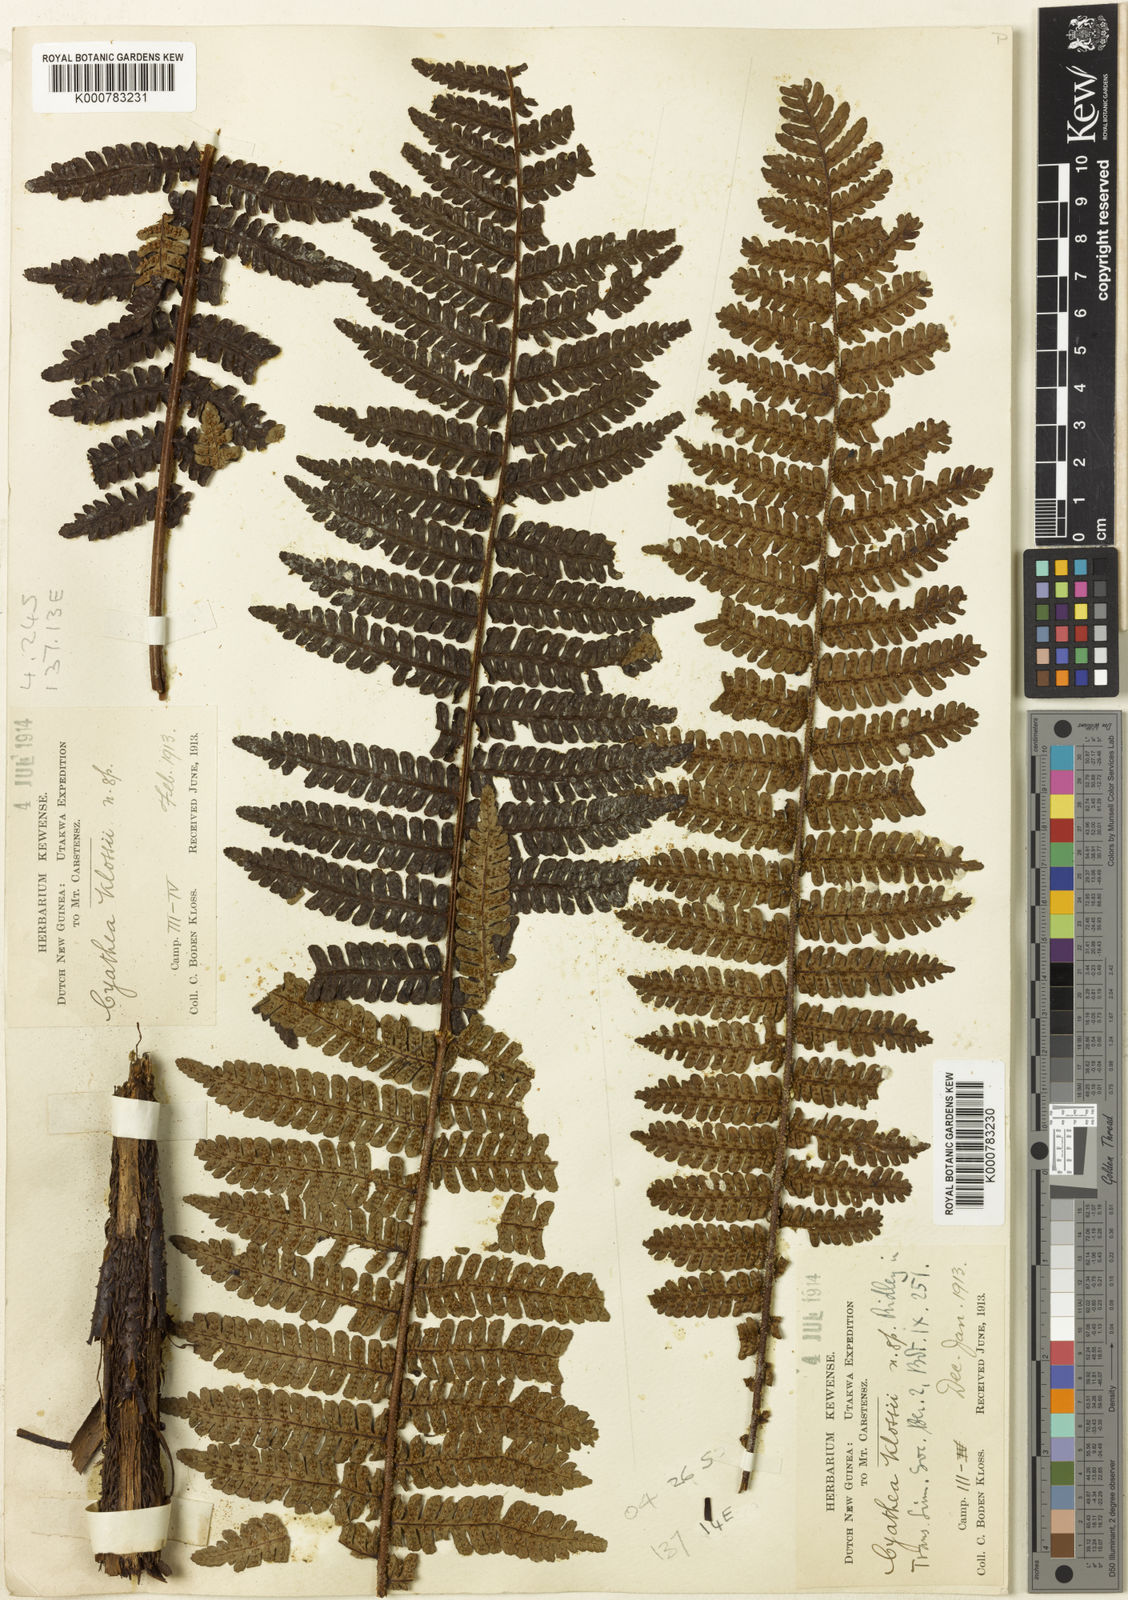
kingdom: Plantae
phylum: Tracheophyta
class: Polypodiopsida
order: Cyatheales
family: Cyatheaceae
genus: Alsophila
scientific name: Alsophila klossii
